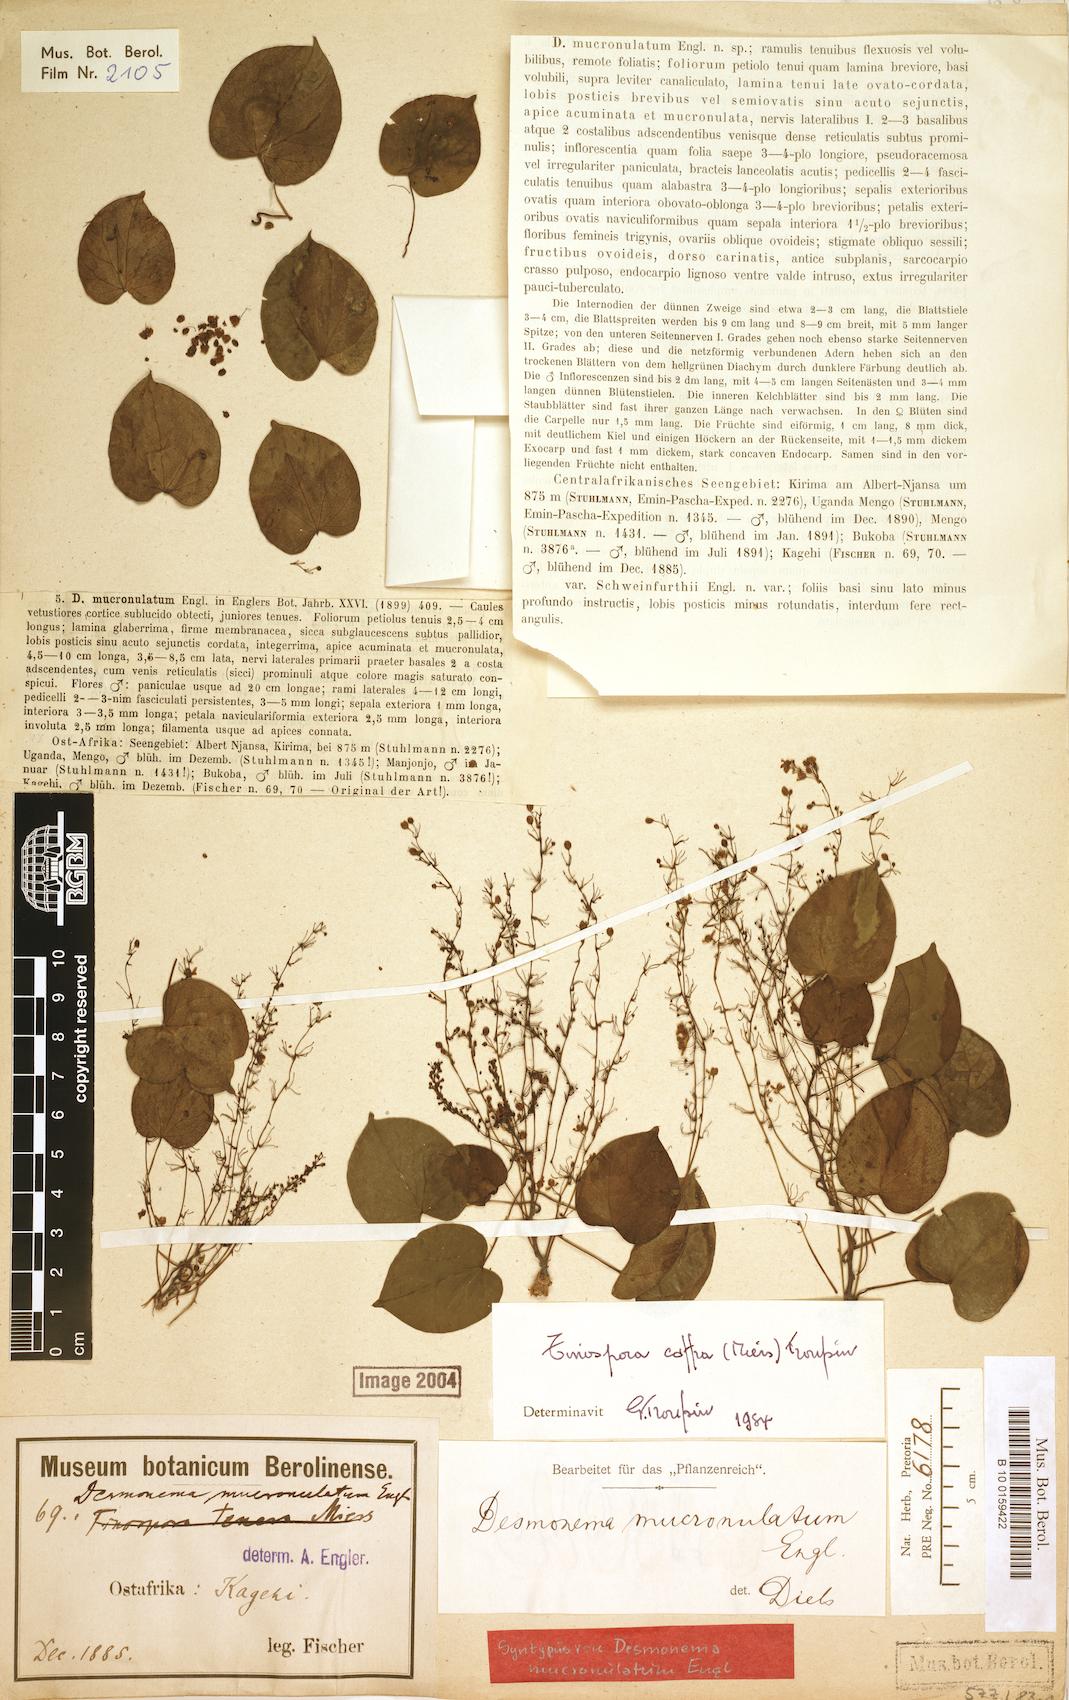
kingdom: Plantae
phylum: Tracheophyta
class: Magnoliopsida
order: Ranunculales
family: Menispermaceae
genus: Tinospora
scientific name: Tinospora caffra
